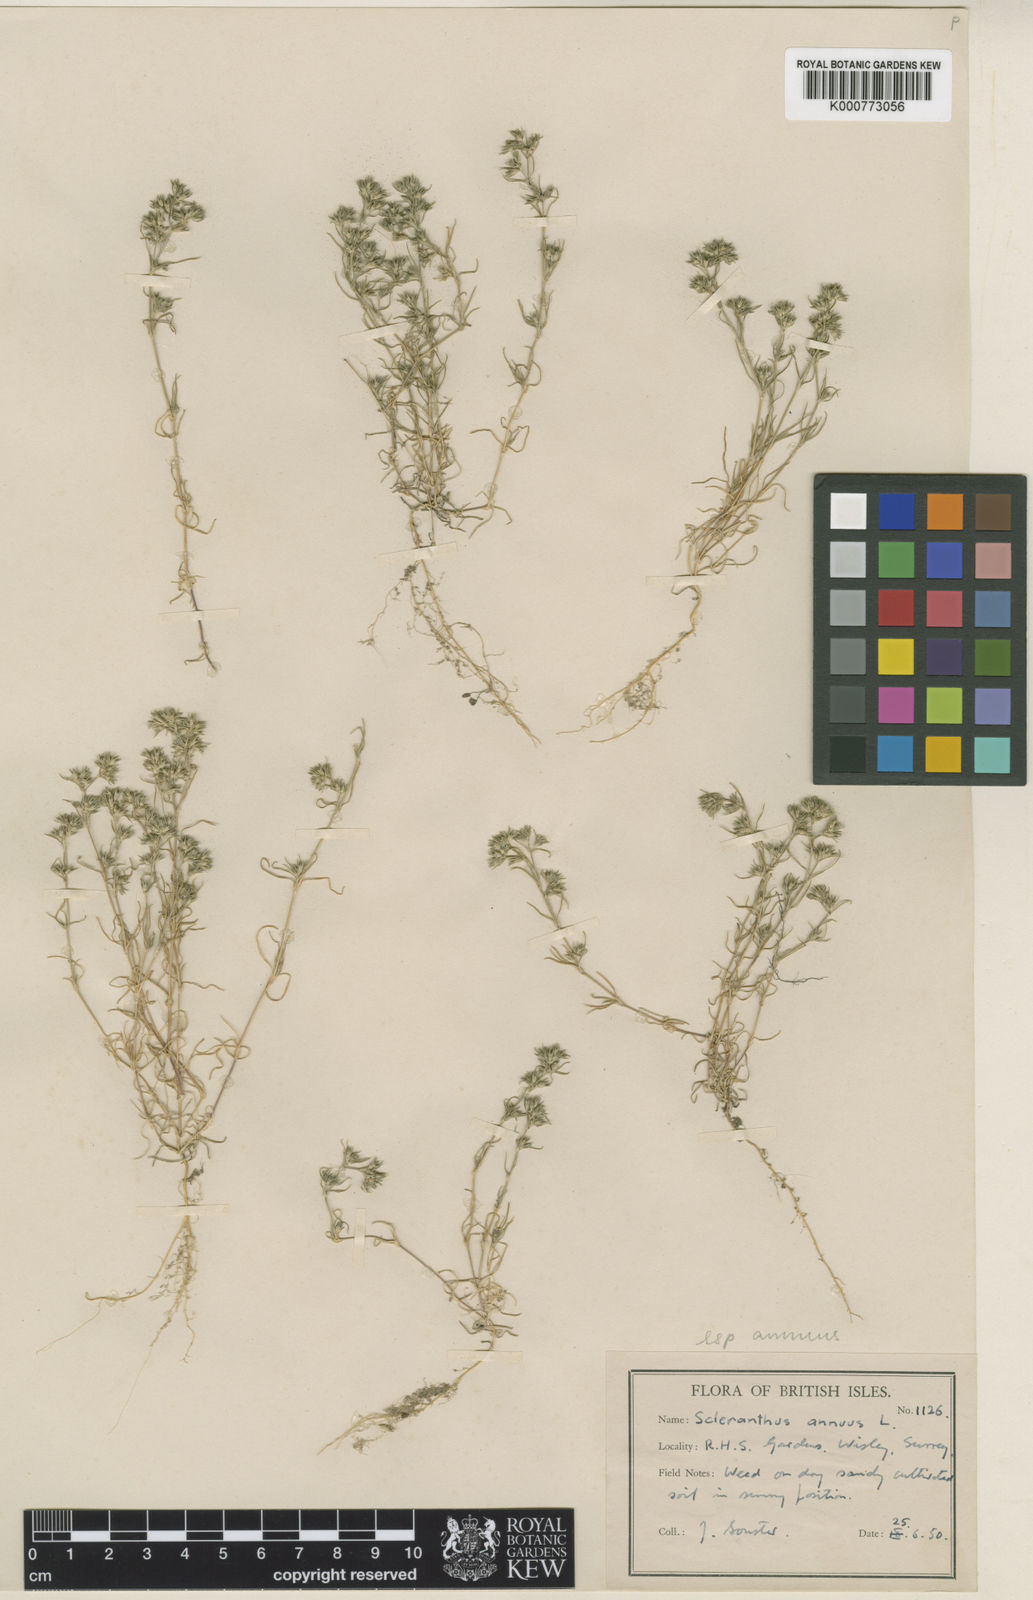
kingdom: Plantae
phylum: Tracheophyta
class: Magnoliopsida
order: Caryophyllales
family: Caryophyllaceae
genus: Scleranthus
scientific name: Scleranthus annuus
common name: Annual knawel
